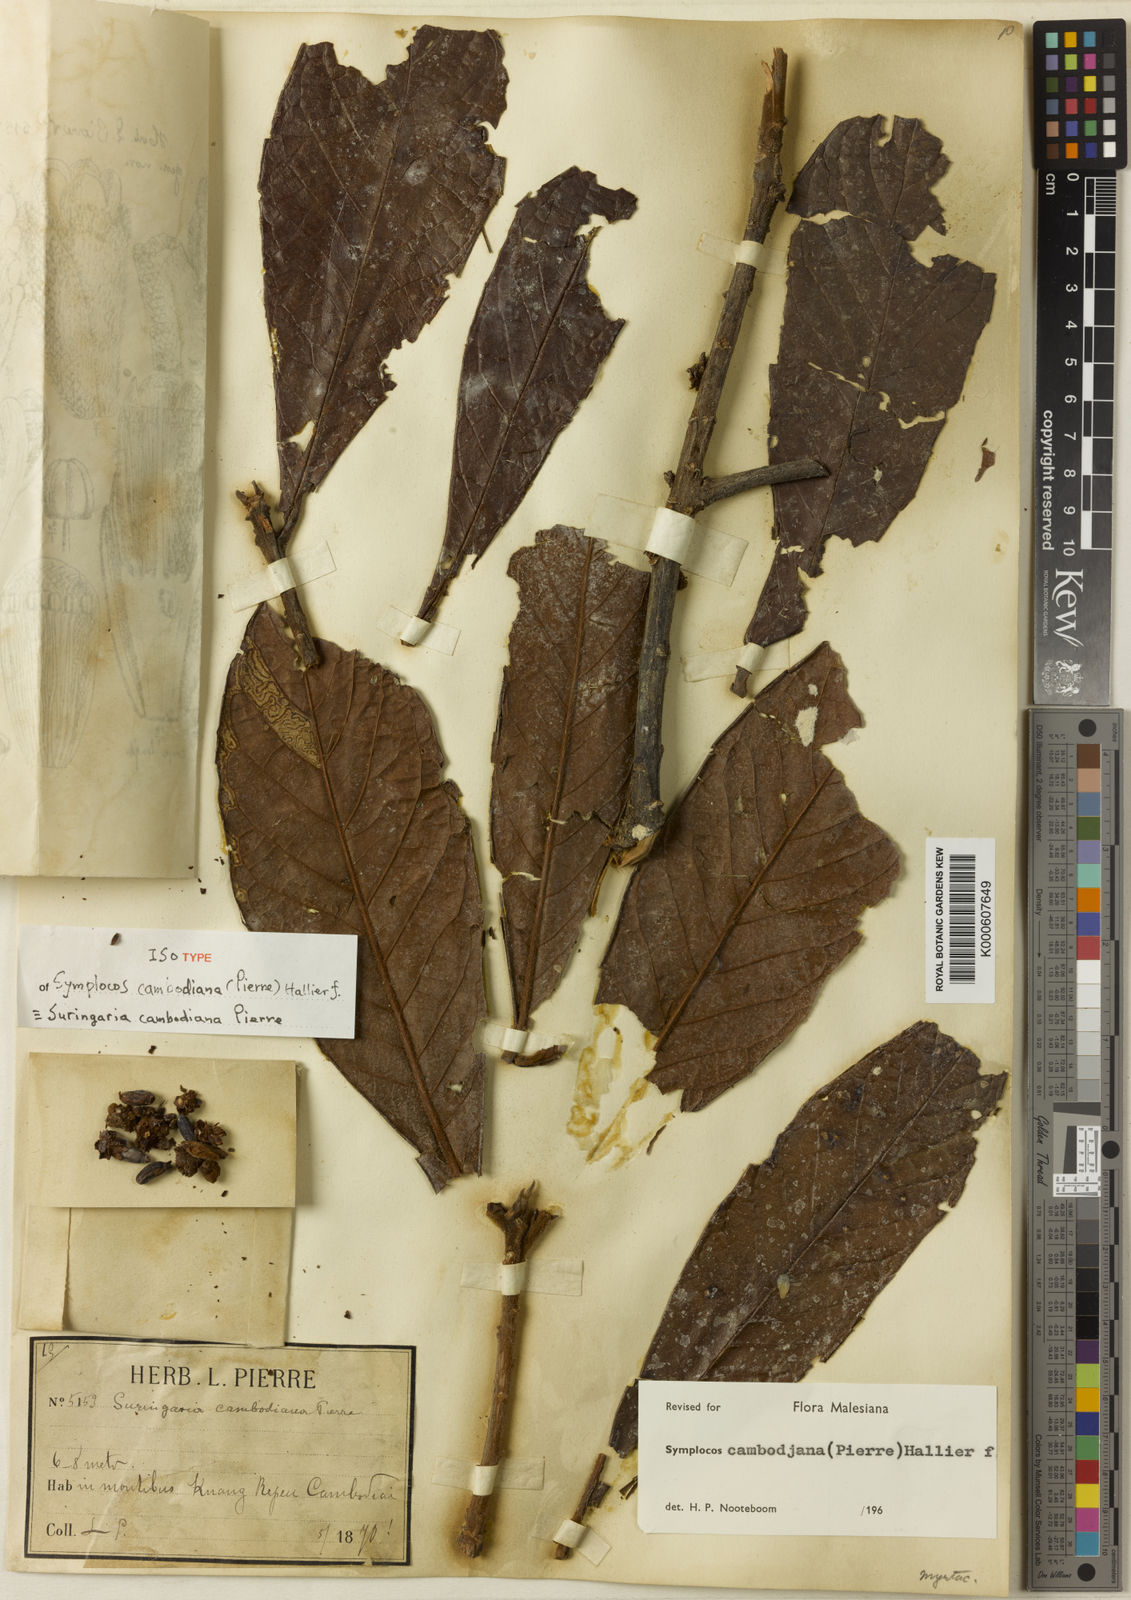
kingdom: Plantae
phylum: Tracheophyta
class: Magnoliopsida
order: Ericales
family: Symplocaceae
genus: Symplocos
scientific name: Symplocos cambodiana
